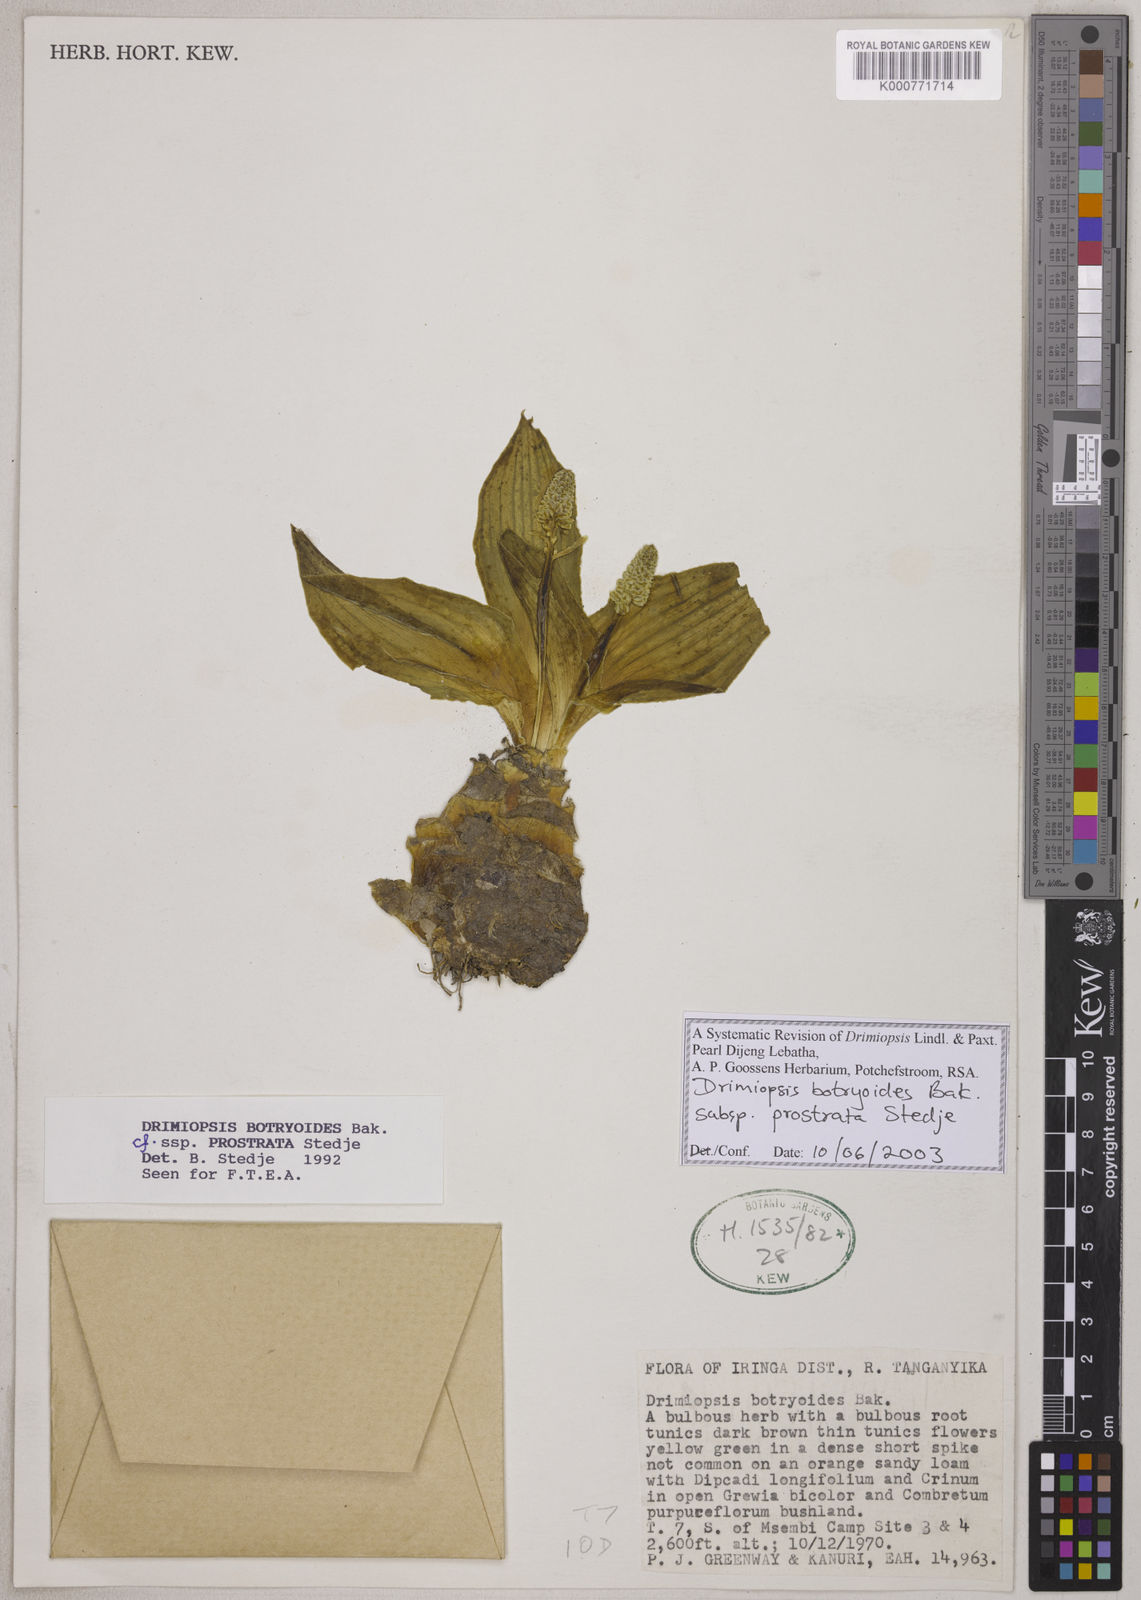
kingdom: Plantae
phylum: Tracheophyta
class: Liliopsida
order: Asparagales
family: Asparagaceae
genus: Drimiopsis
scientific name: Drimiopsis botryoides
